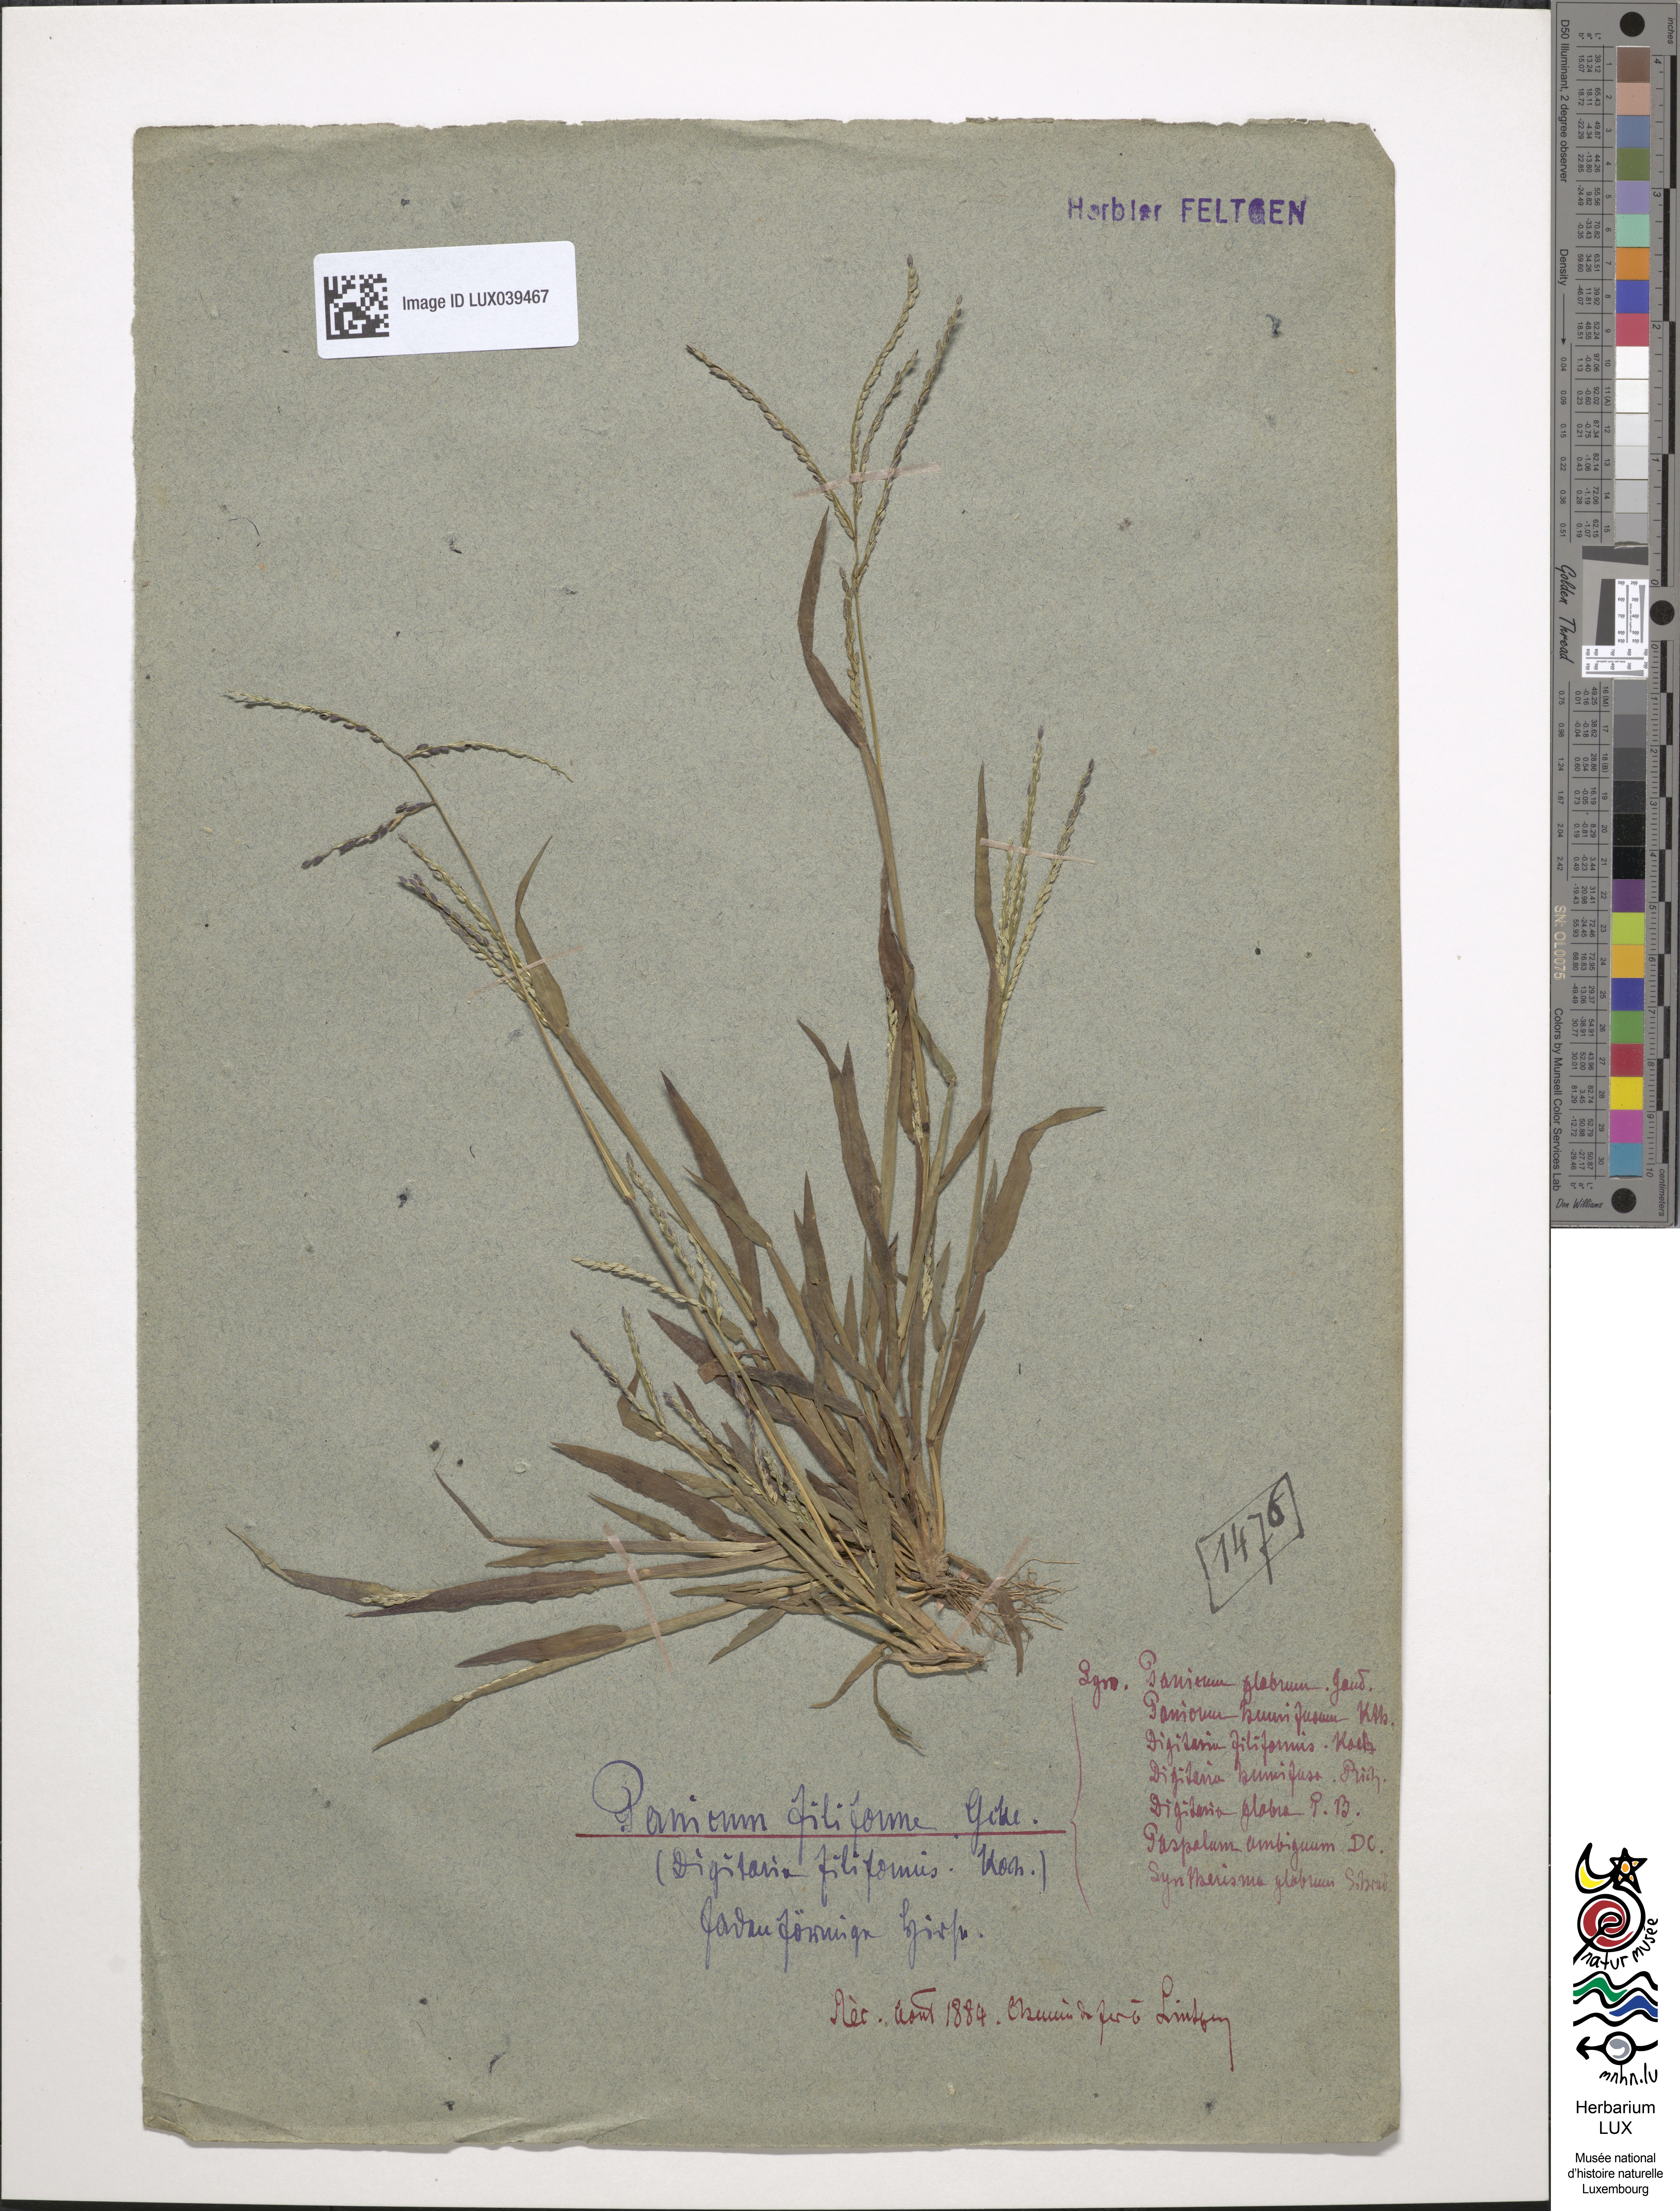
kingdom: Plantae
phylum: Tracheophyta
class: Liliopsida
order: Poales
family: Poaceae
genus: Digitaria
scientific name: Digitaria filiformis
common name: Slender crabgrass
